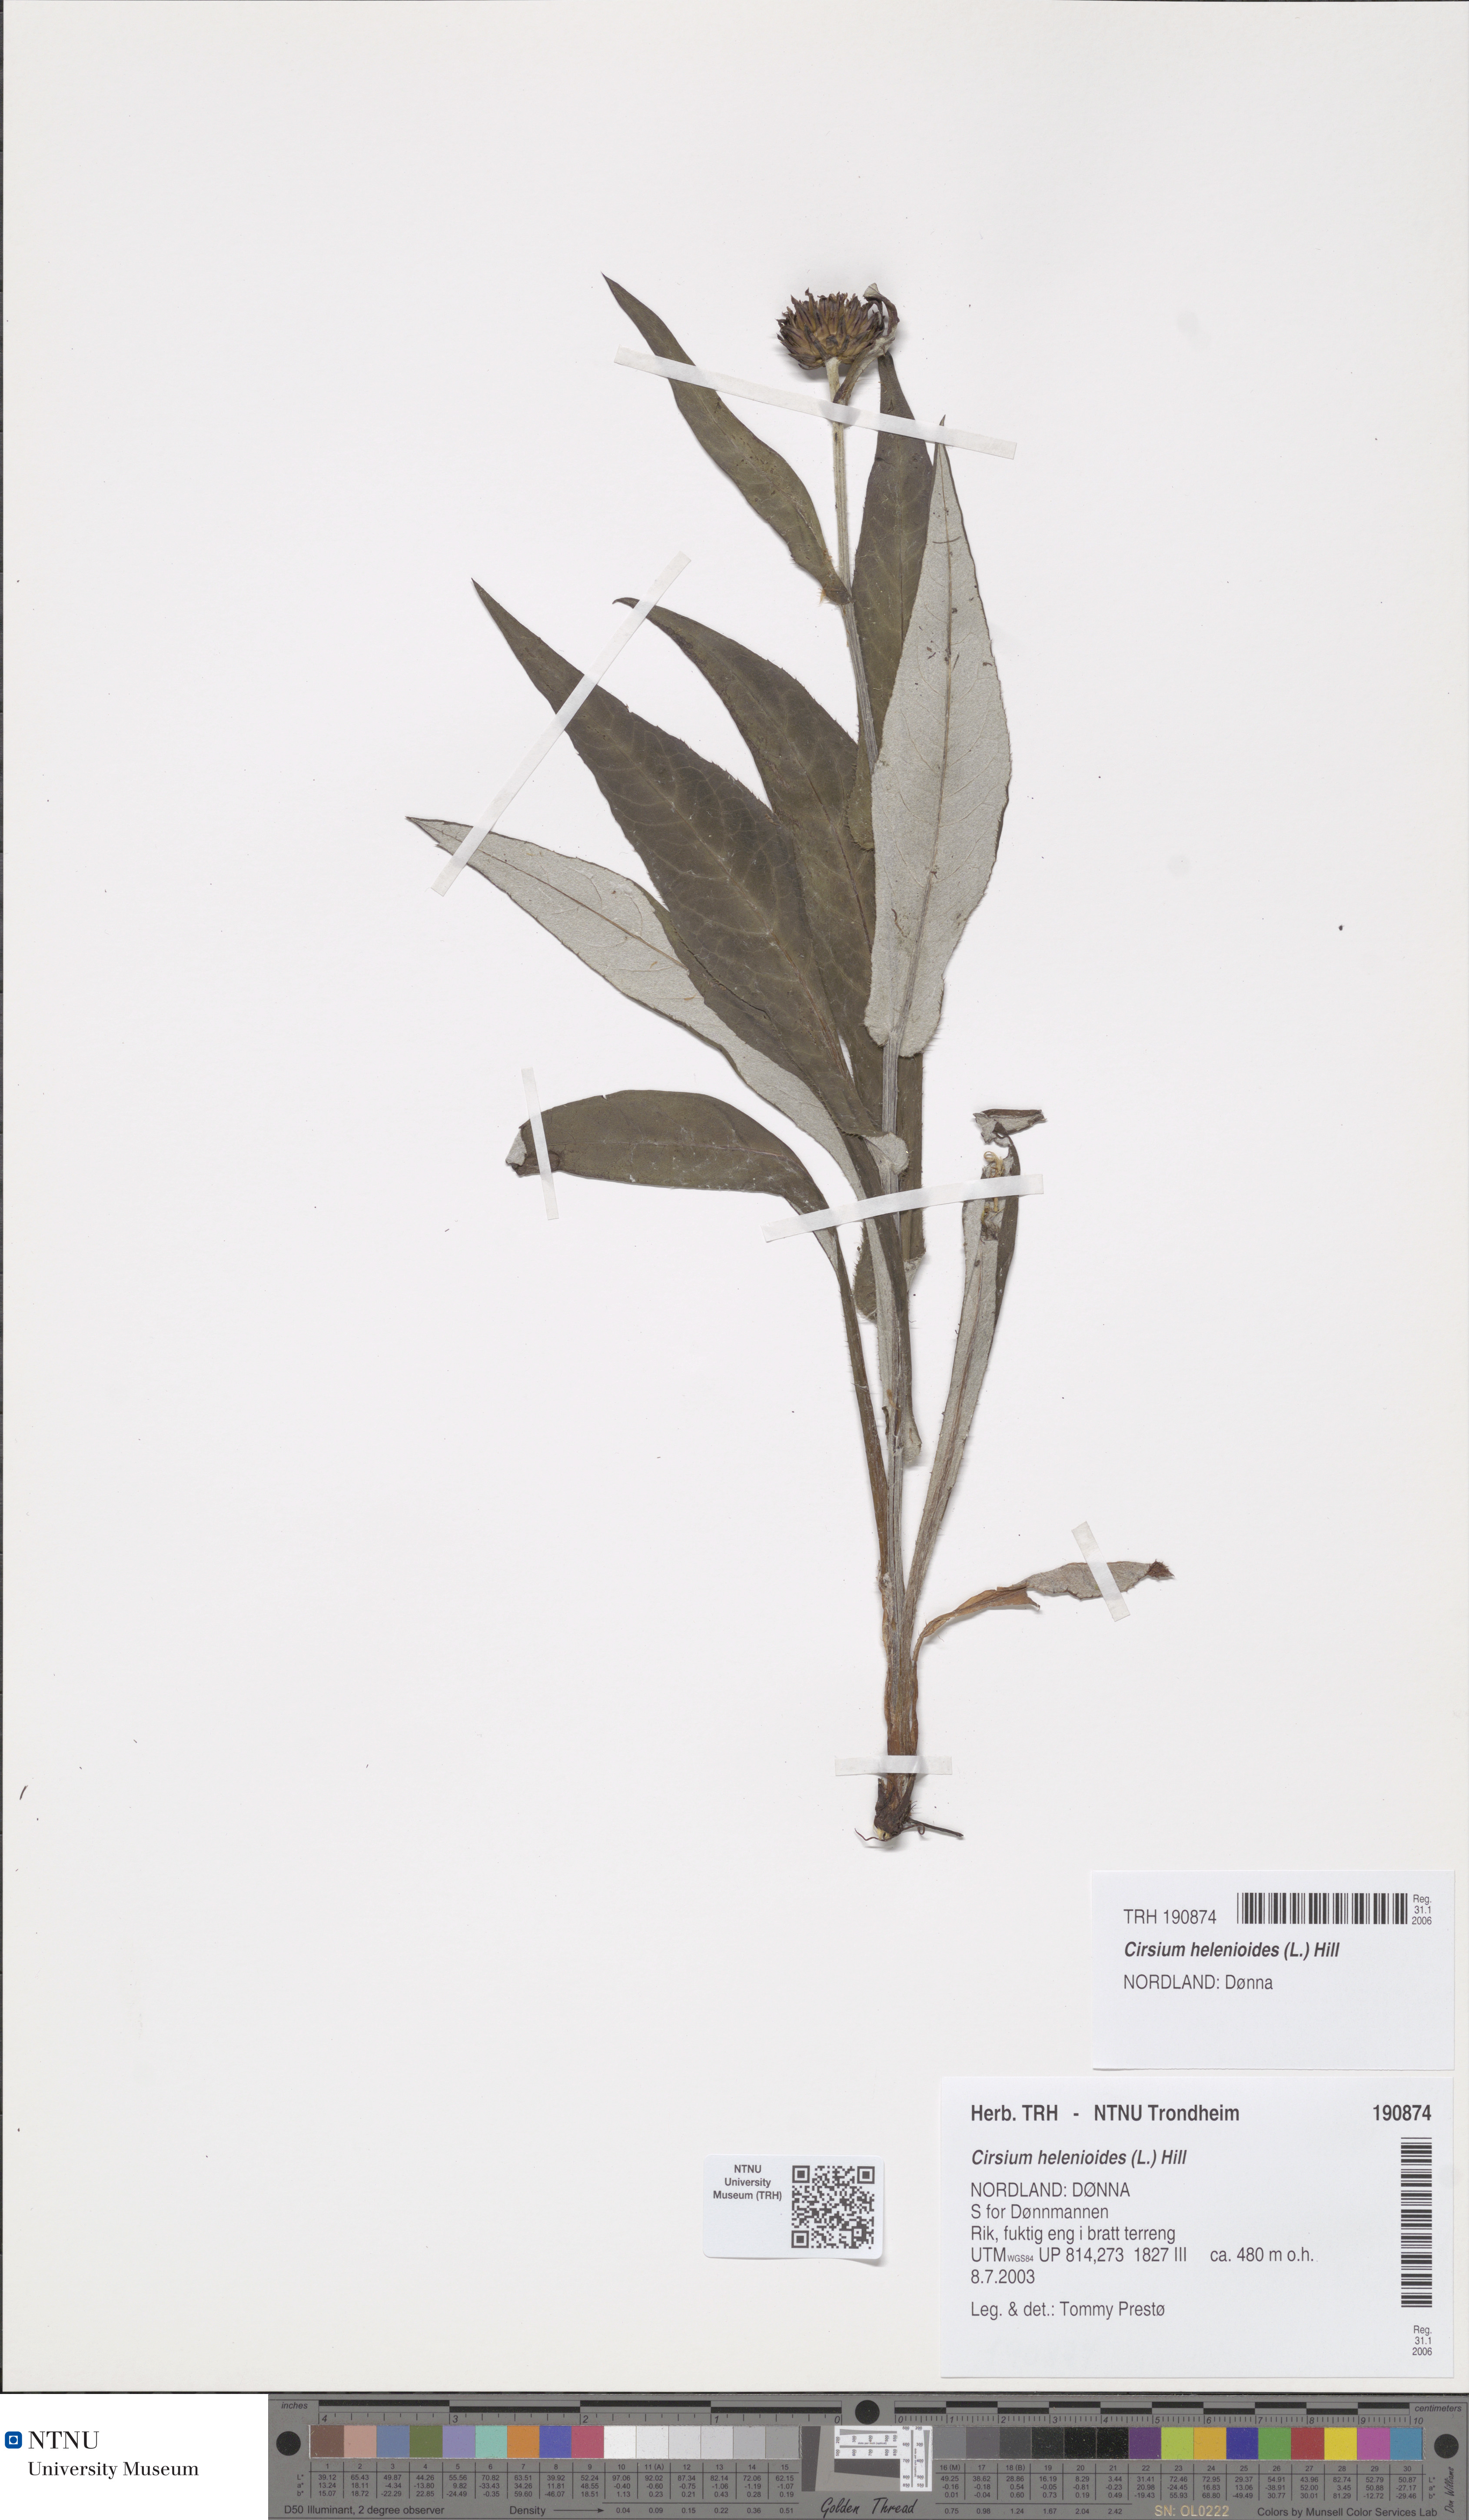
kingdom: Plantae
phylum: Tracheophyta
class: Magnoliopsida
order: Asterales
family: Asteraceae
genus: Cirsium
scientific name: Cirsium heterophyllum
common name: Melancholy thistle
